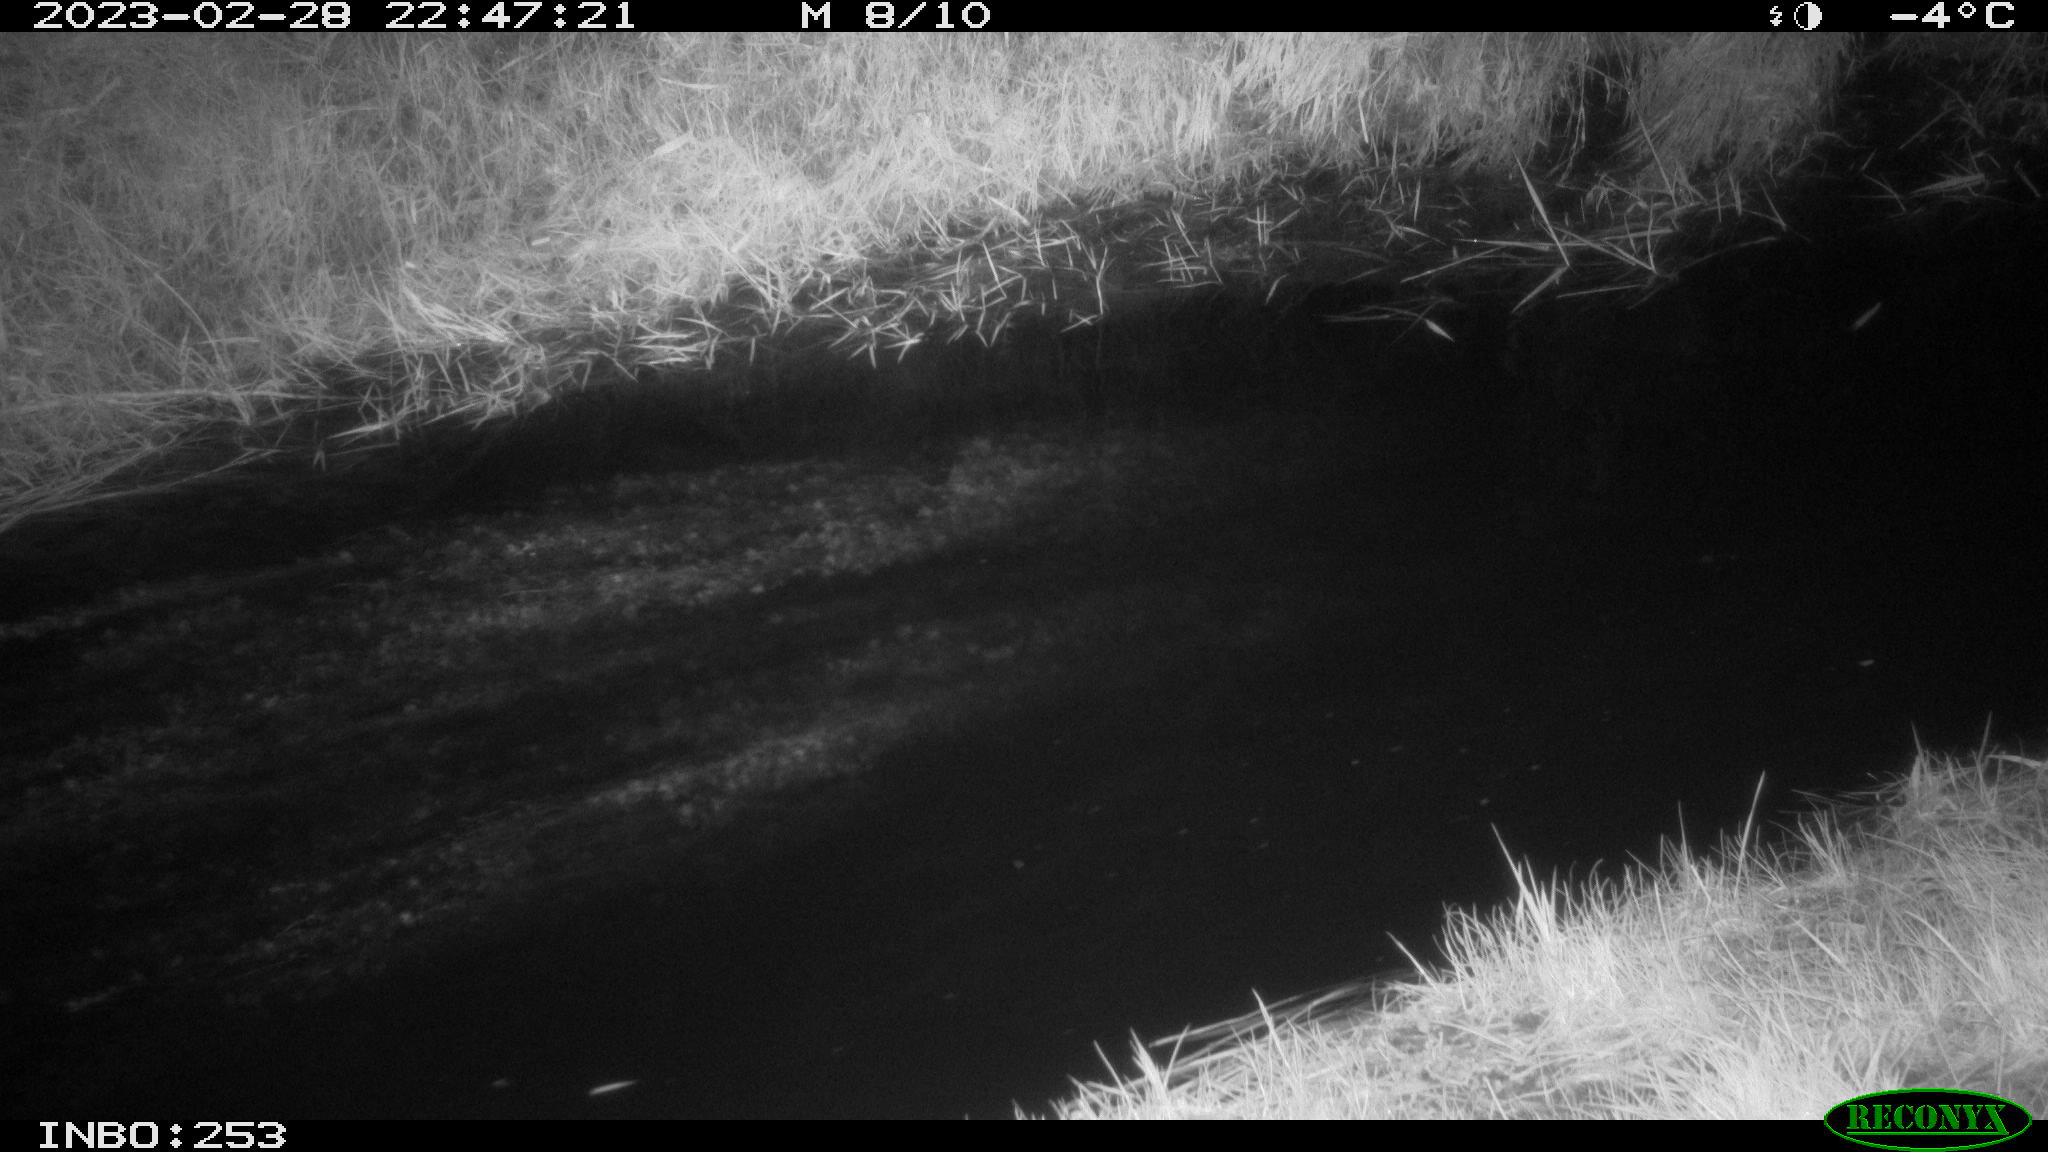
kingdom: Animalia
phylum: Chordata
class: Mammalia
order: Rodentia
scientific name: Rodentia
